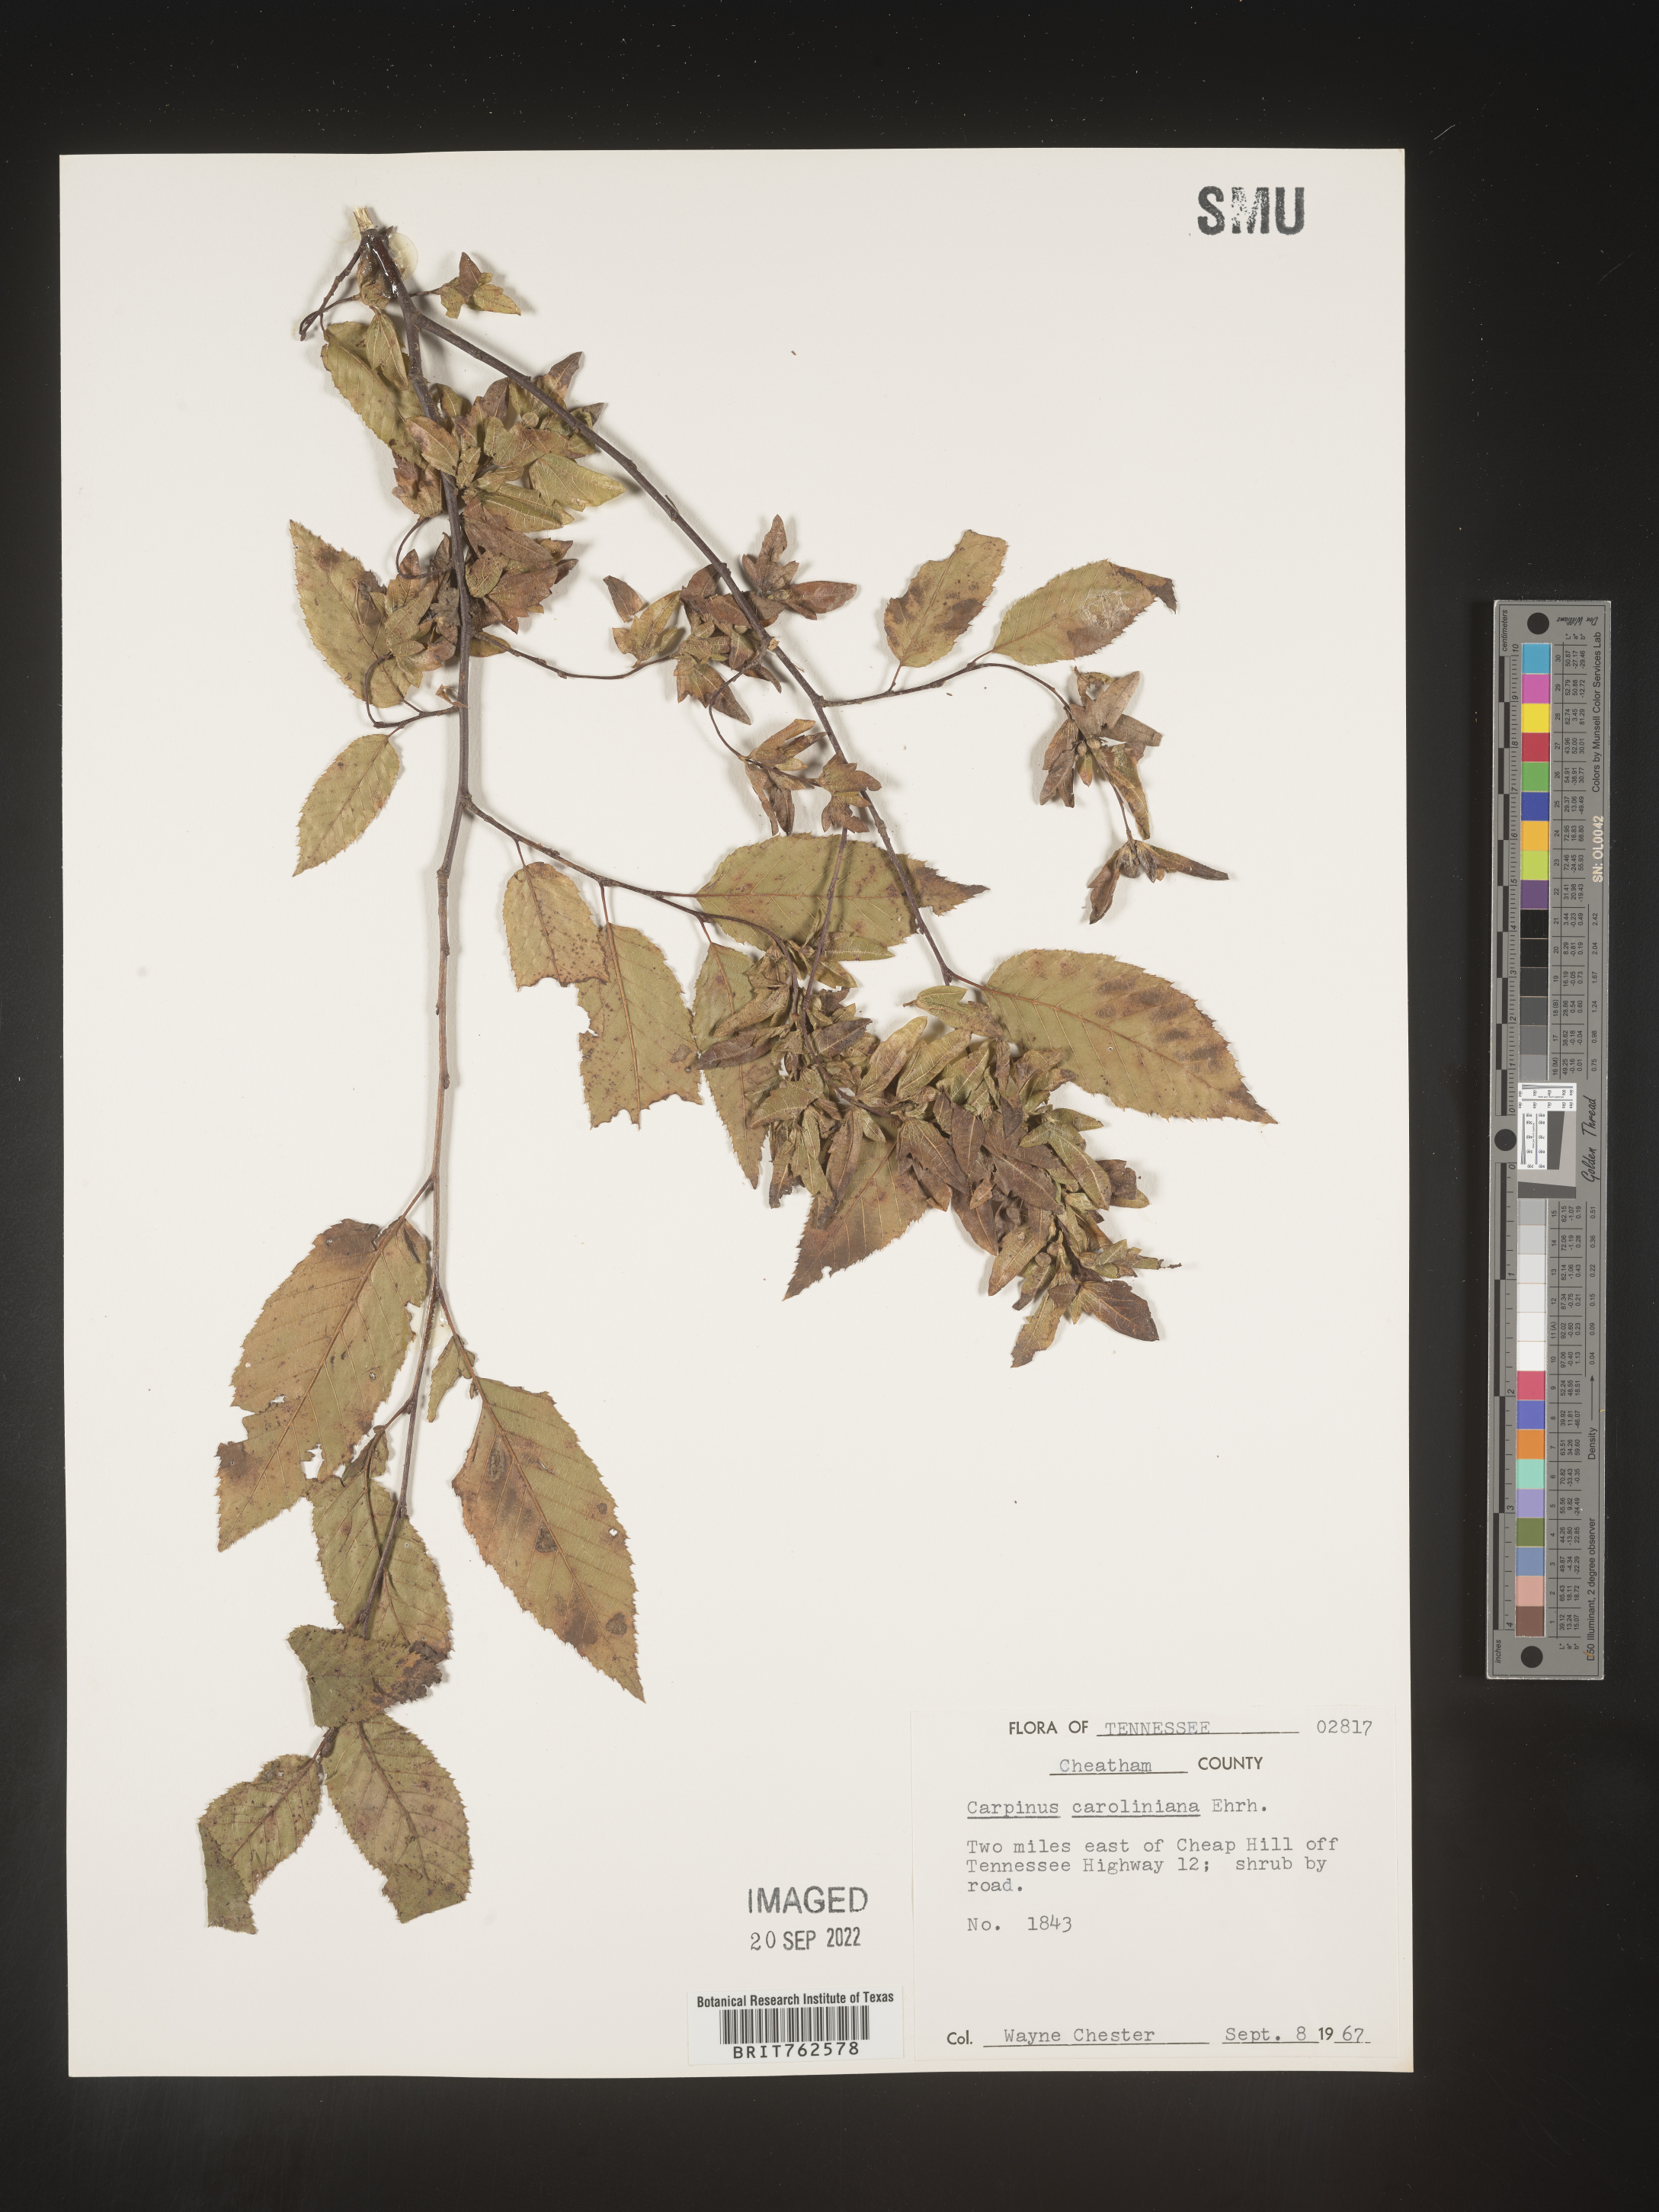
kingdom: Plantae
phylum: Tracheophyta
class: Magnoliopsida
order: Fagales
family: Betulaceae
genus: Carpinus
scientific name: Carpinus caroliniana
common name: American hornbeam
